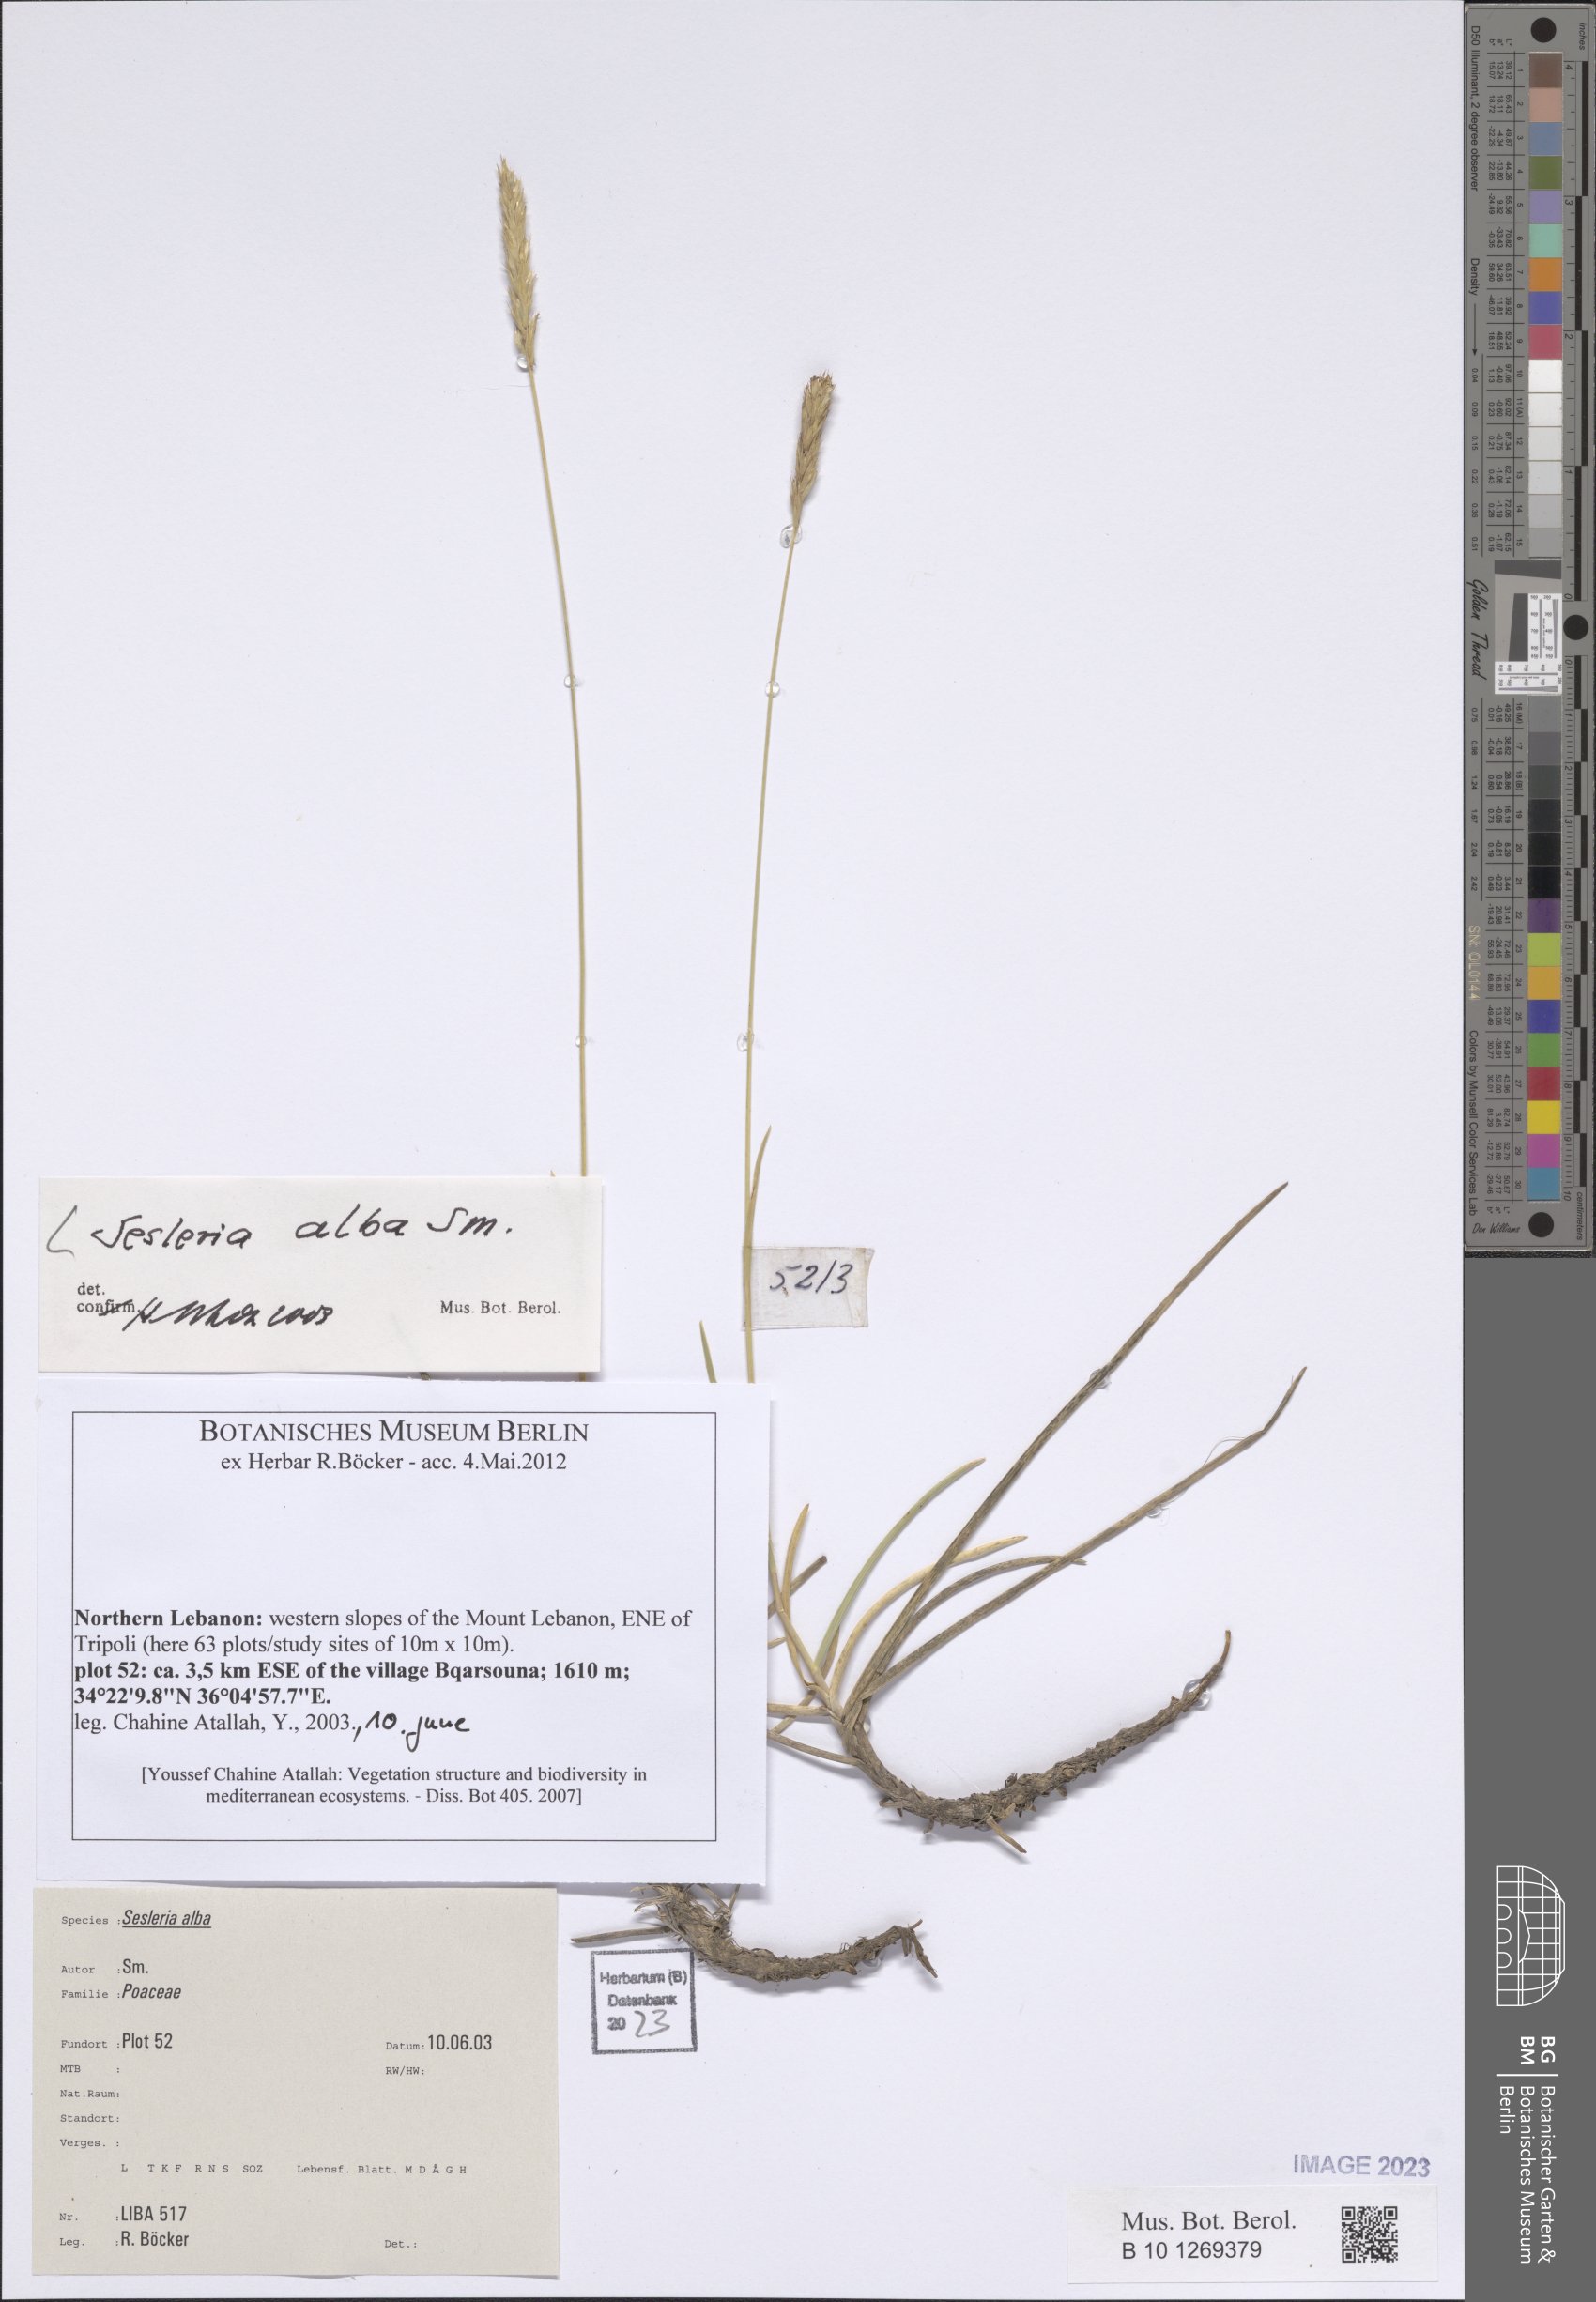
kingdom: Plantae
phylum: Tracheophyta
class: Liliopsida
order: Poales
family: Poaceae
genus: Sesleria
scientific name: Sesleria alba
